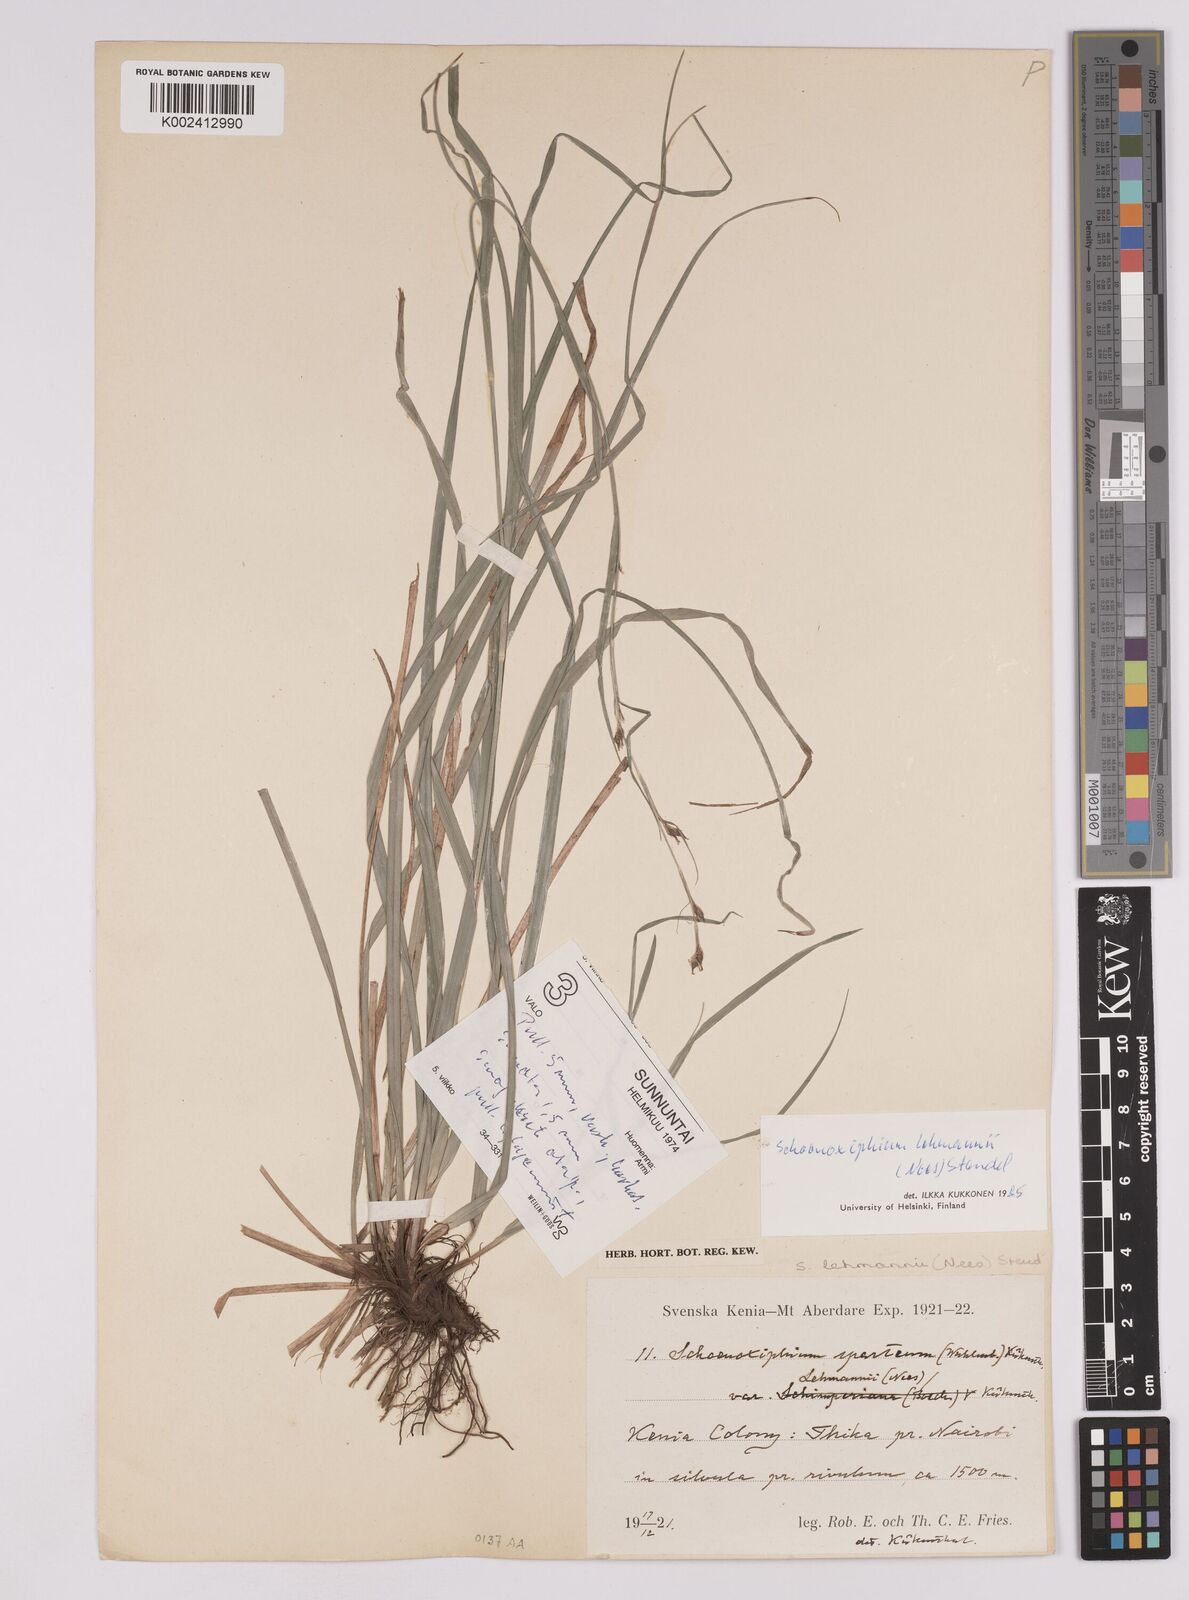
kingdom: Plantae
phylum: Tracheophyta
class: Liliopsida
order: Poales
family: Cyperaceae
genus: Carex
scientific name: Carex uhligii
